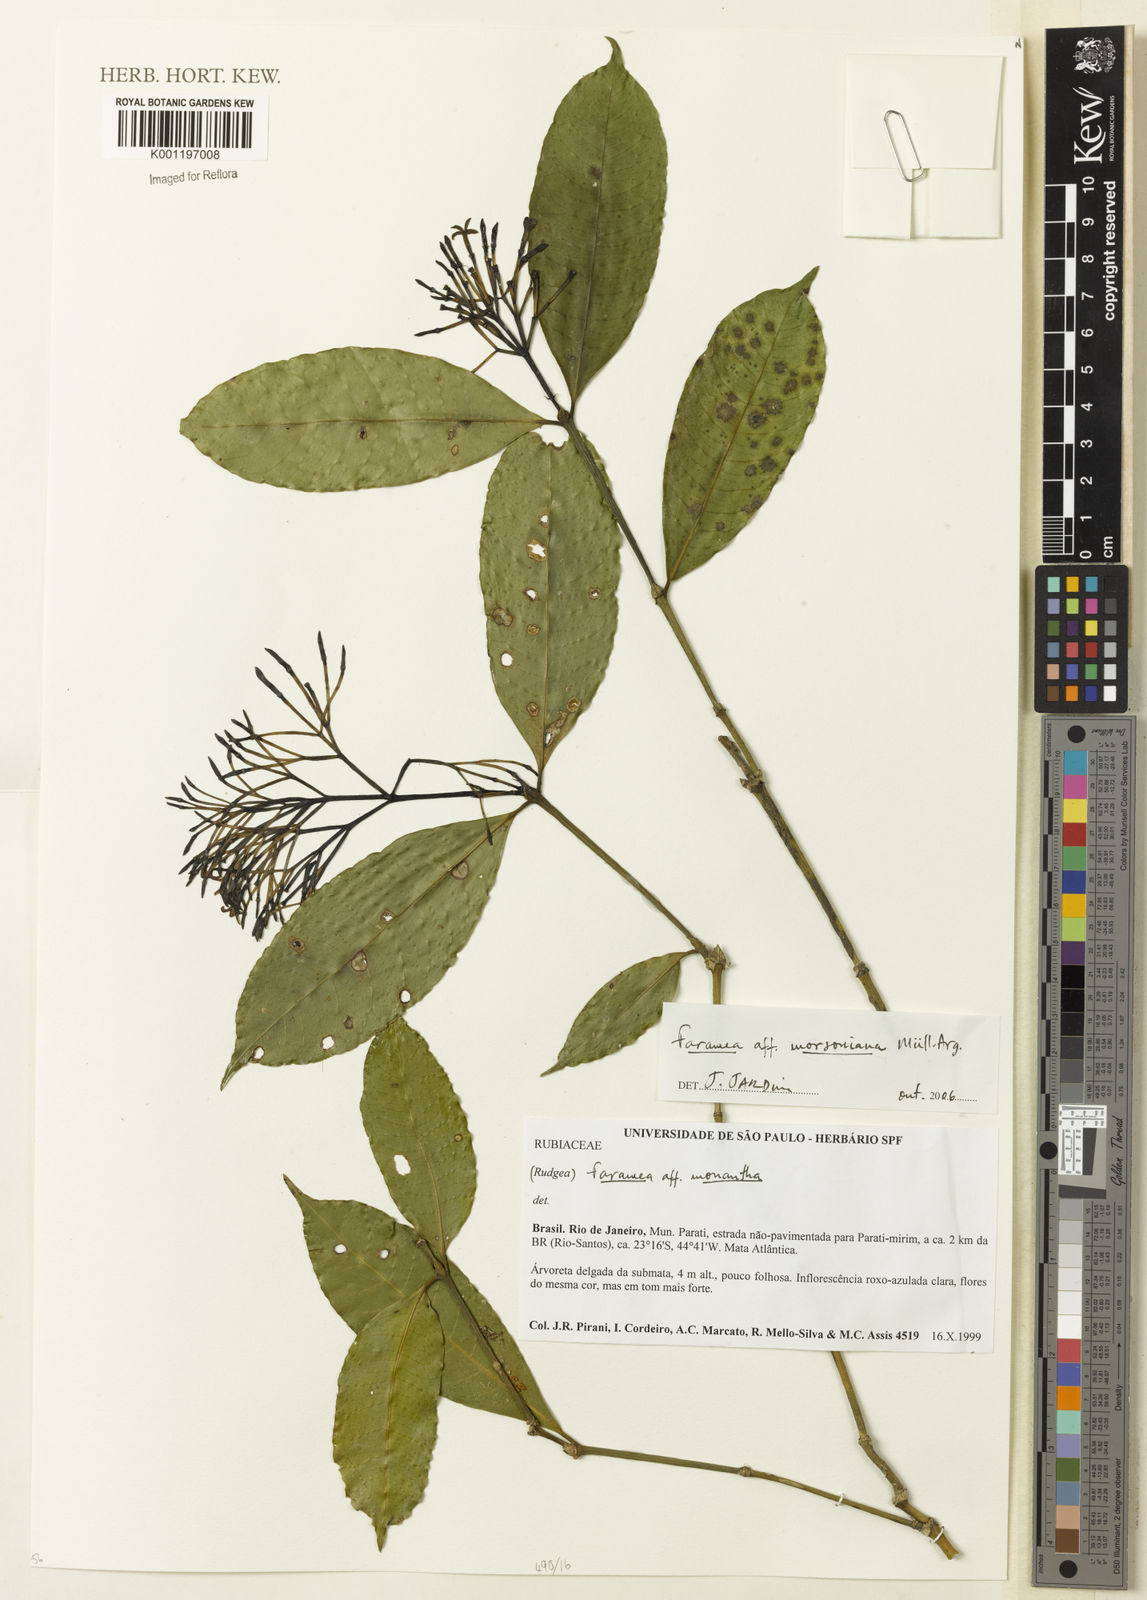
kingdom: Plantae
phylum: Tracheophyta
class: Magnoliopsida
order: Gentianales
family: Rubiaceae
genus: Faramea
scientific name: Faramea
